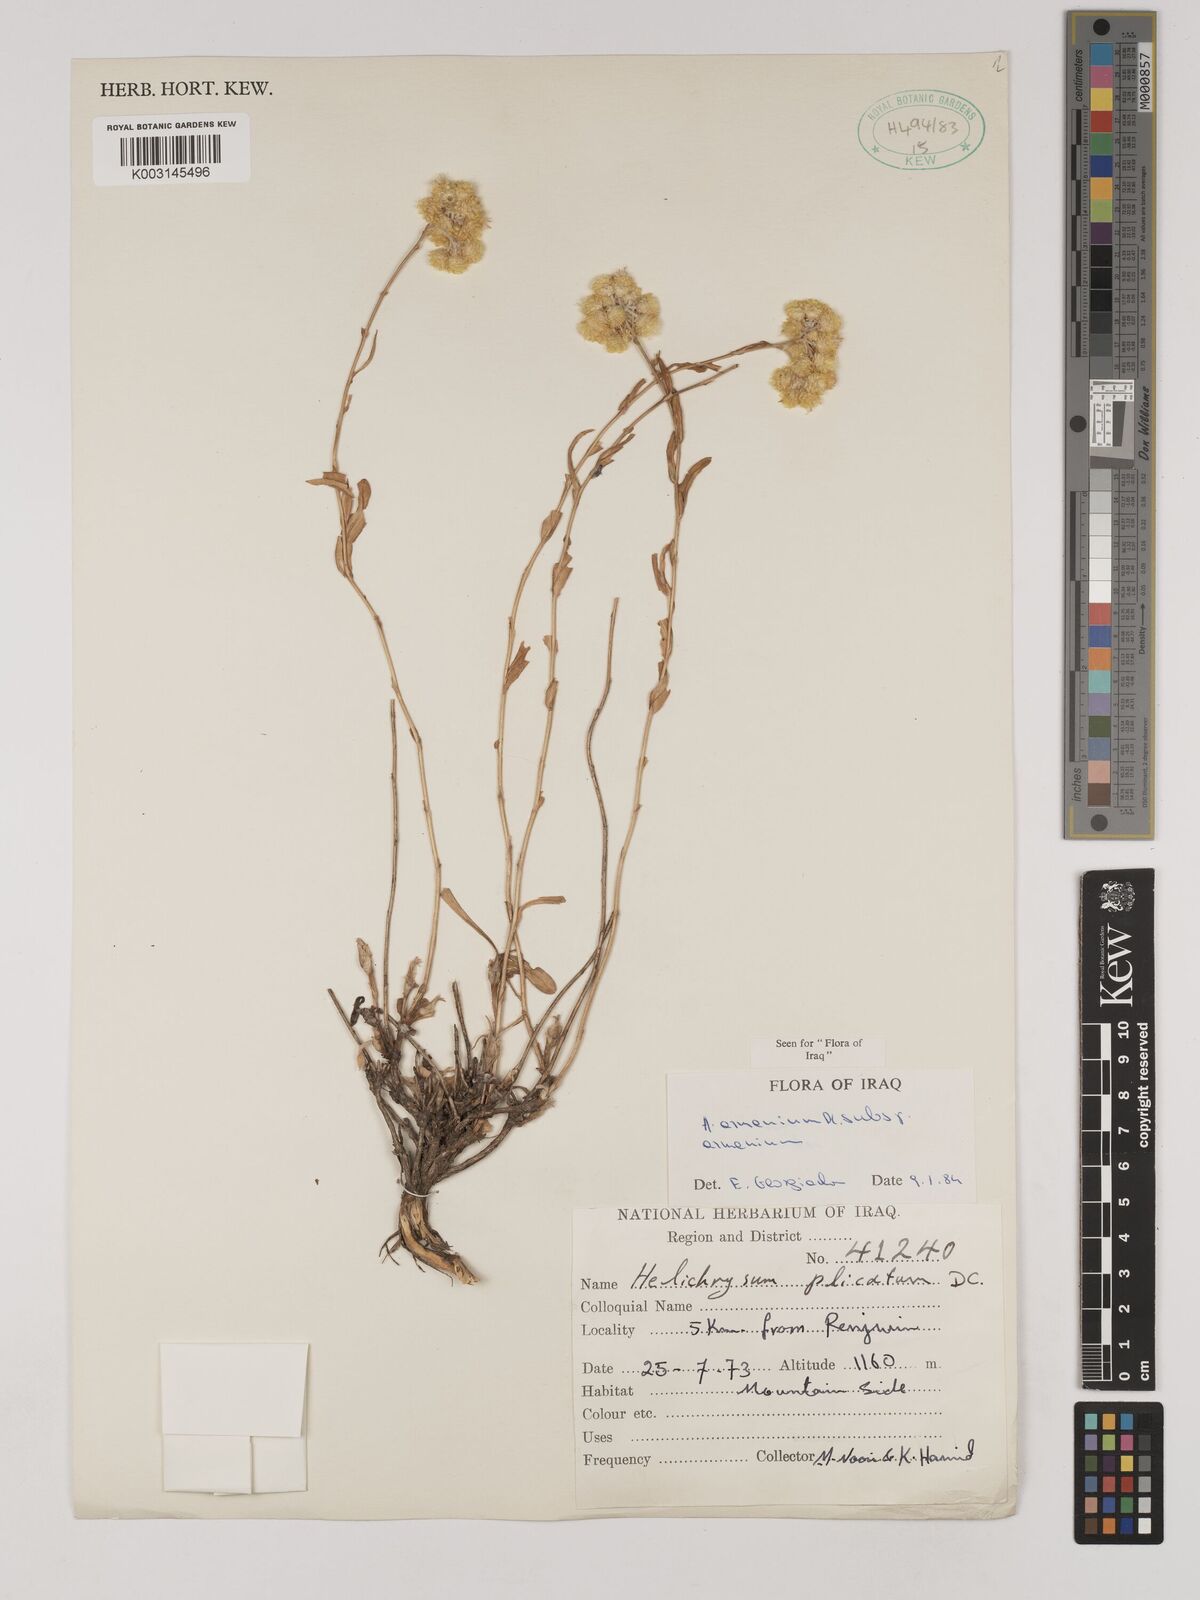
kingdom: Plantae
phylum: Tracheophyta
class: Magnoliopsida
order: Asterales
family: Asteraceae
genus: Helichrysum
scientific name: Helichrysum armenium
